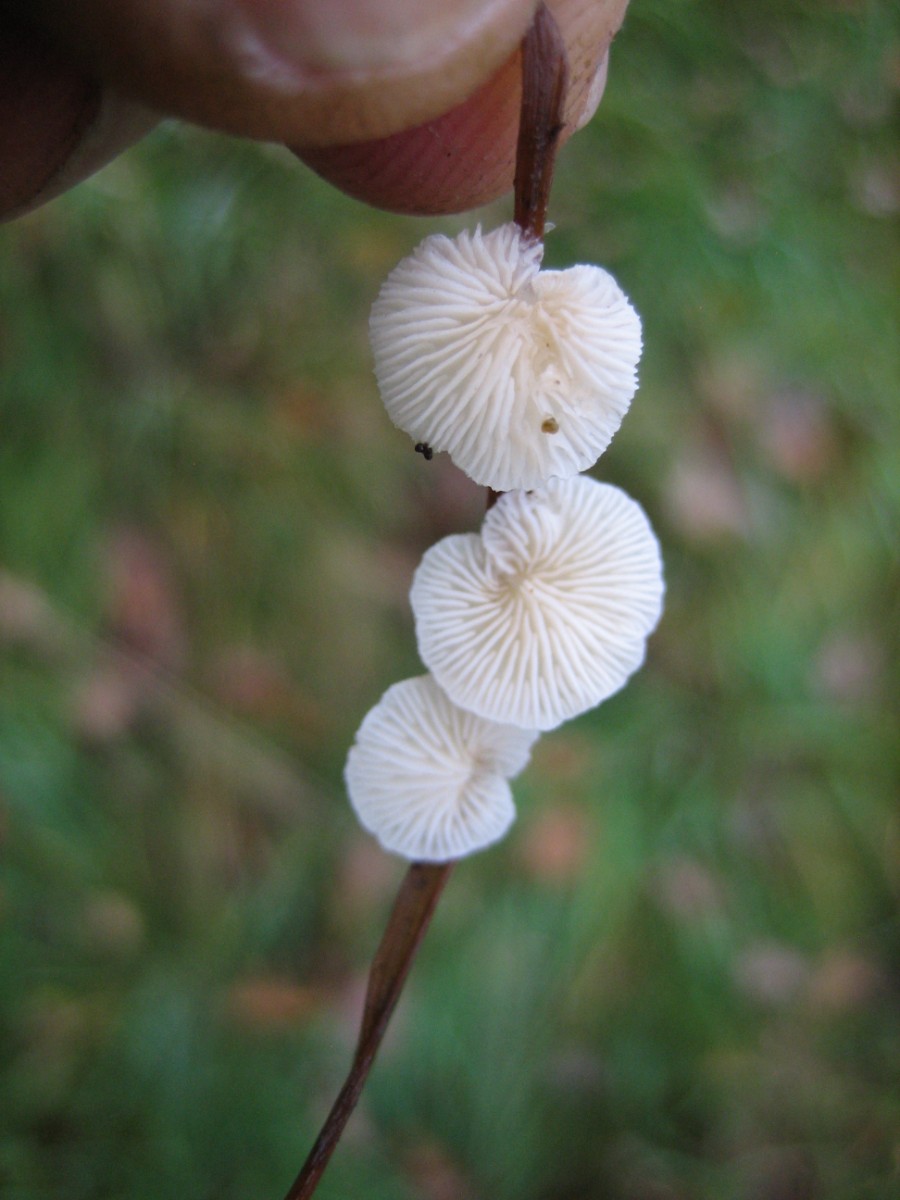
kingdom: Fungi
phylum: Basidiomycota
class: Agaricomycetes
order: Agaricales
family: Crepidotaceae
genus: Crepidotus
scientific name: Crepidotus epibryus
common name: førne-muslingesvamp
